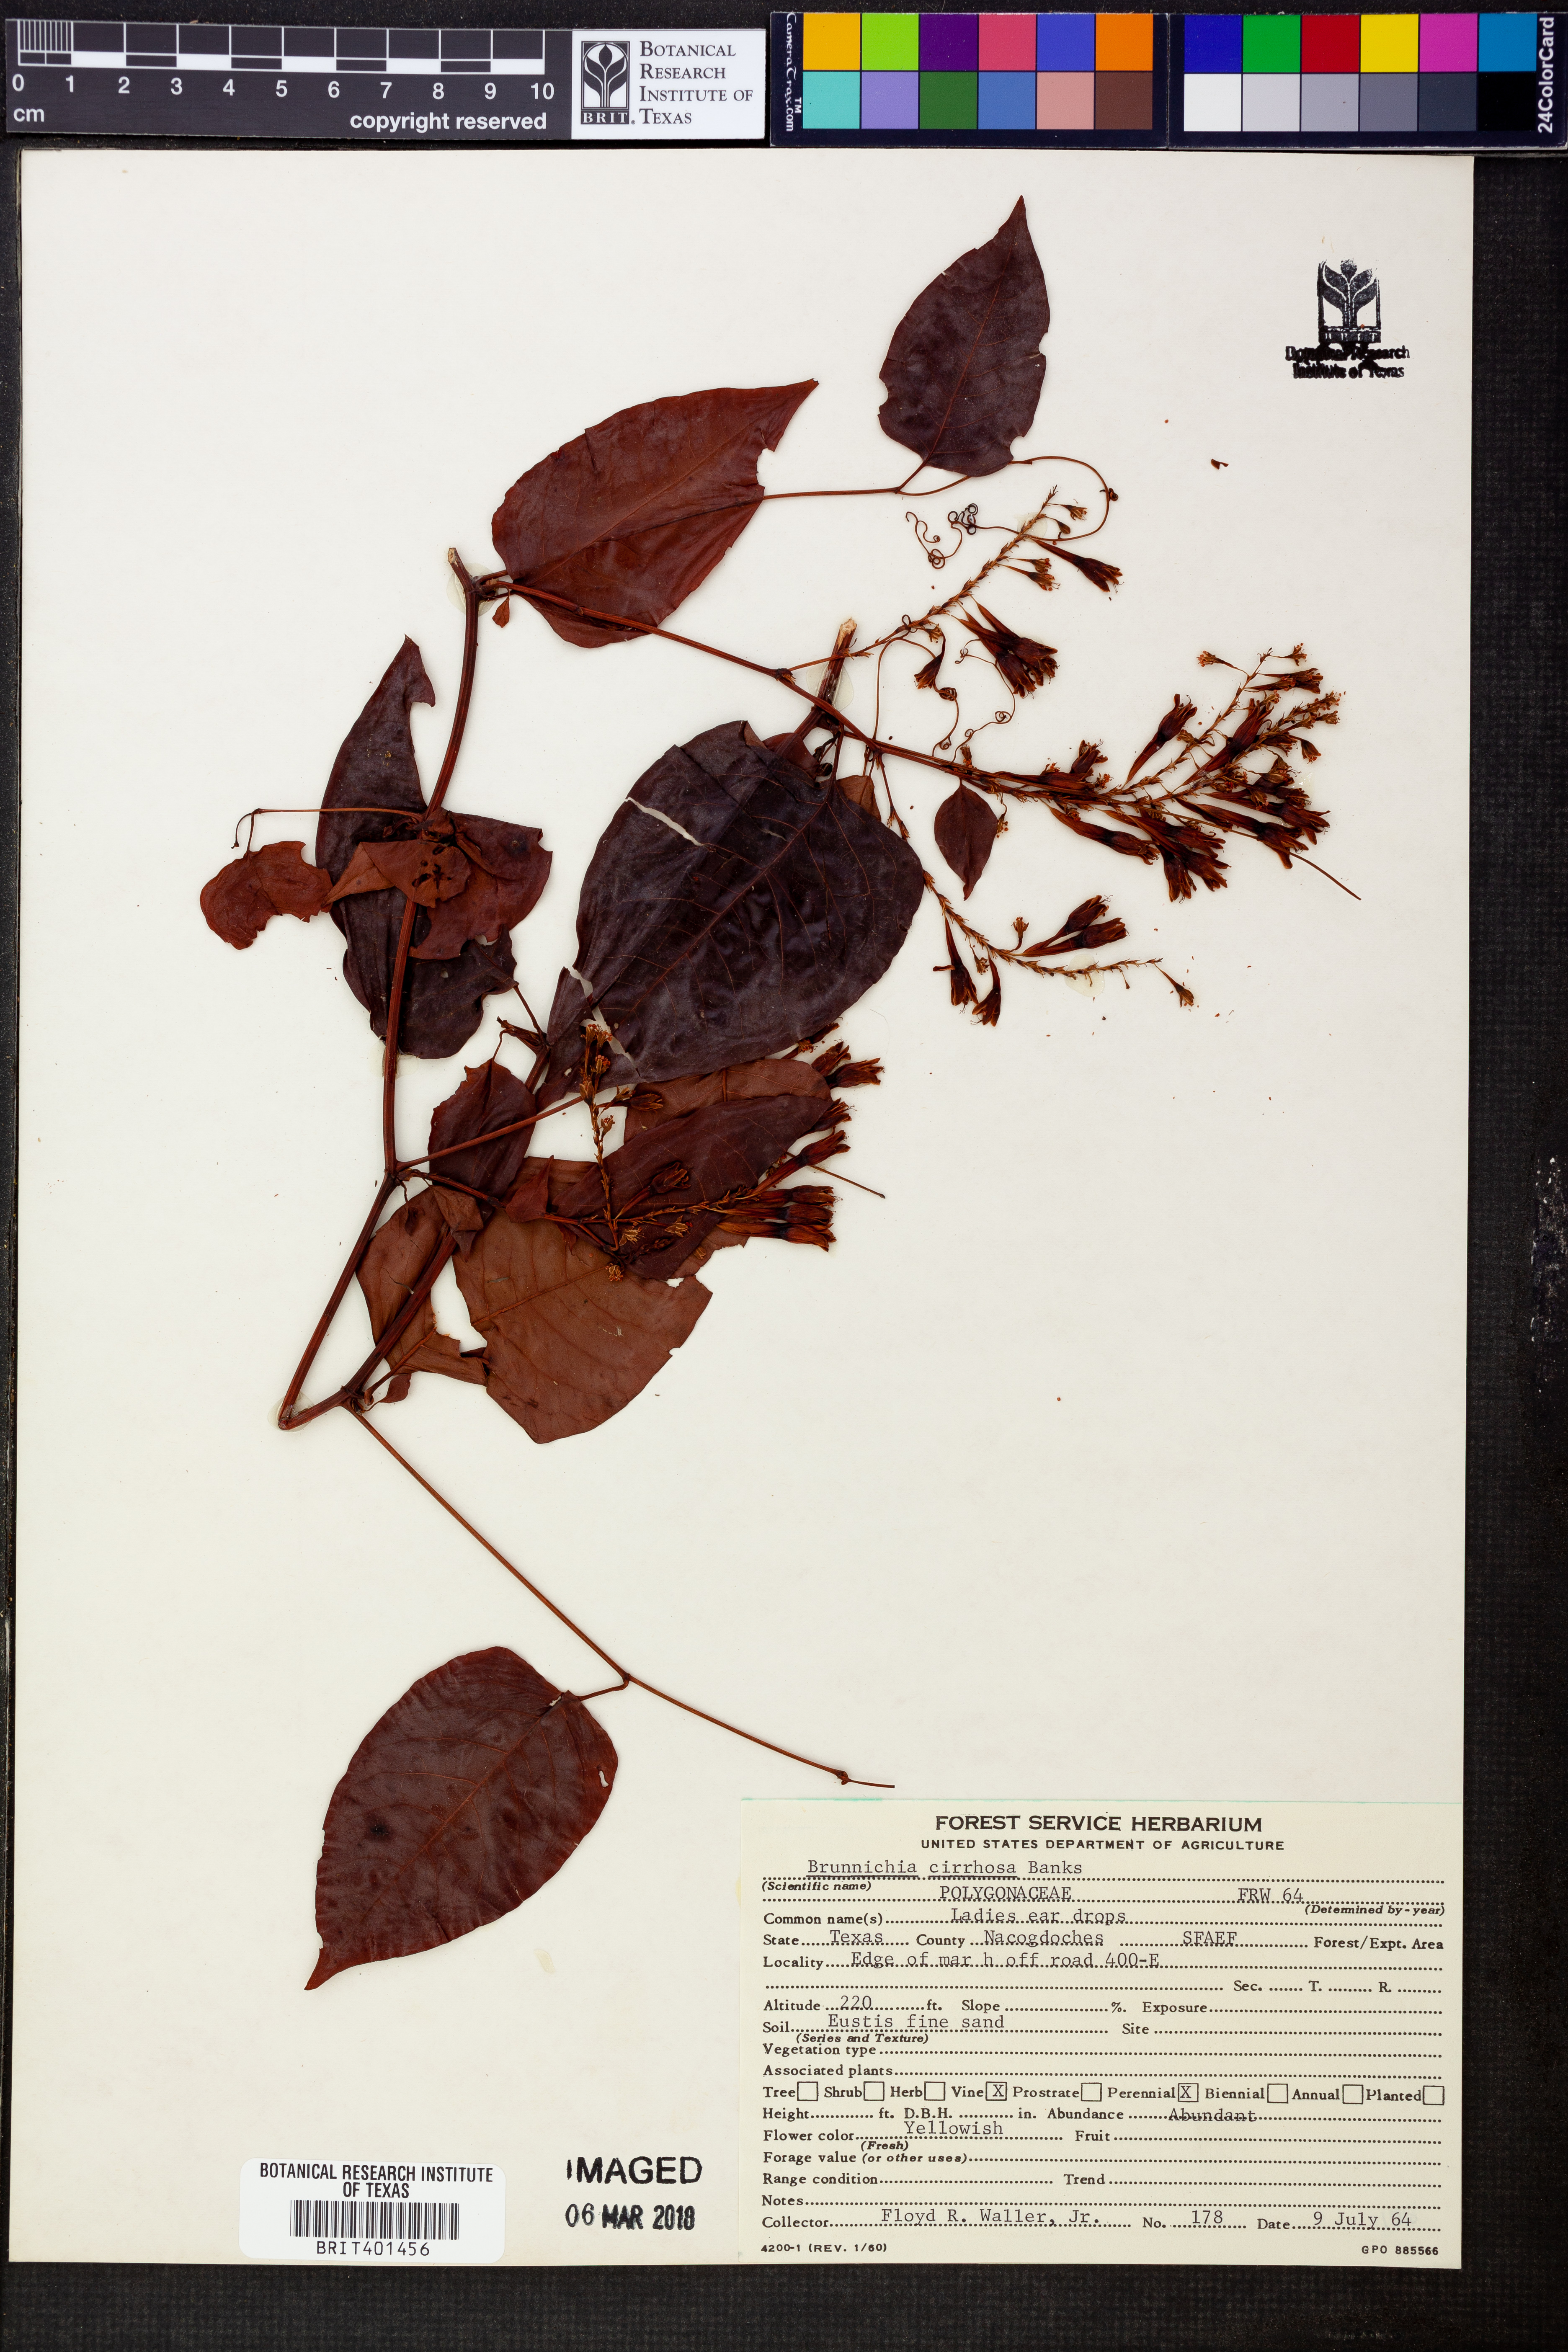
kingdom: Plantae
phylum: Tracheophyta
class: Magnoliopsida
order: Caryophyllales
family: Polygonaceae
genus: Brunnichia
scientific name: Brunnichia ovata
